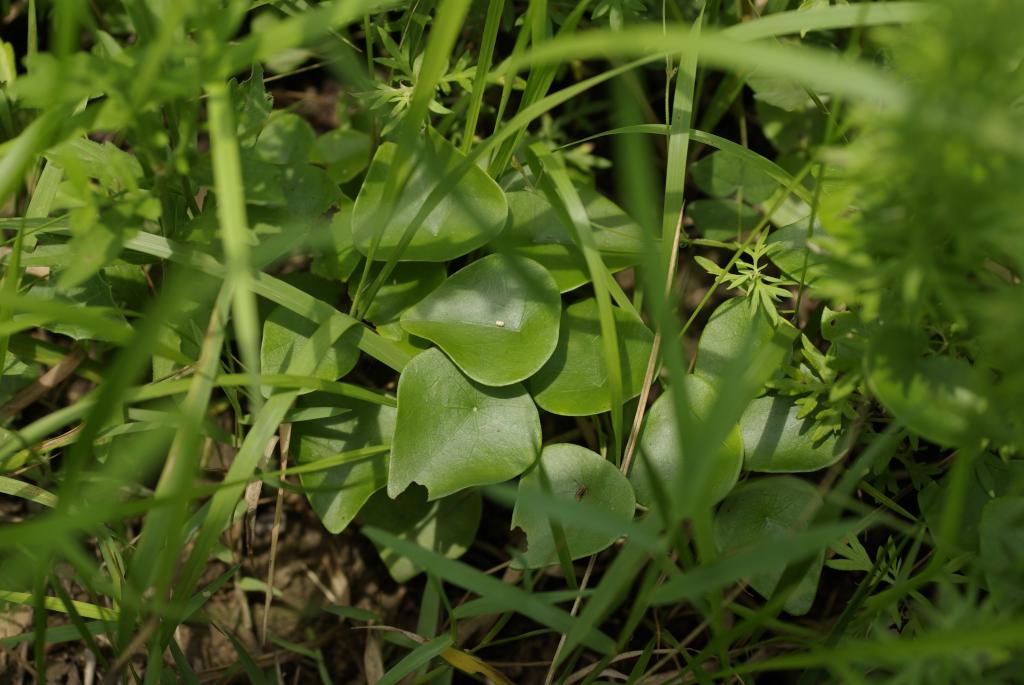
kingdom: Plantae
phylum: Tracheophyta
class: Magnoliopsida
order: Ranunculales
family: Menispermaceae
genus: Stephania
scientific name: Stephania japonica
